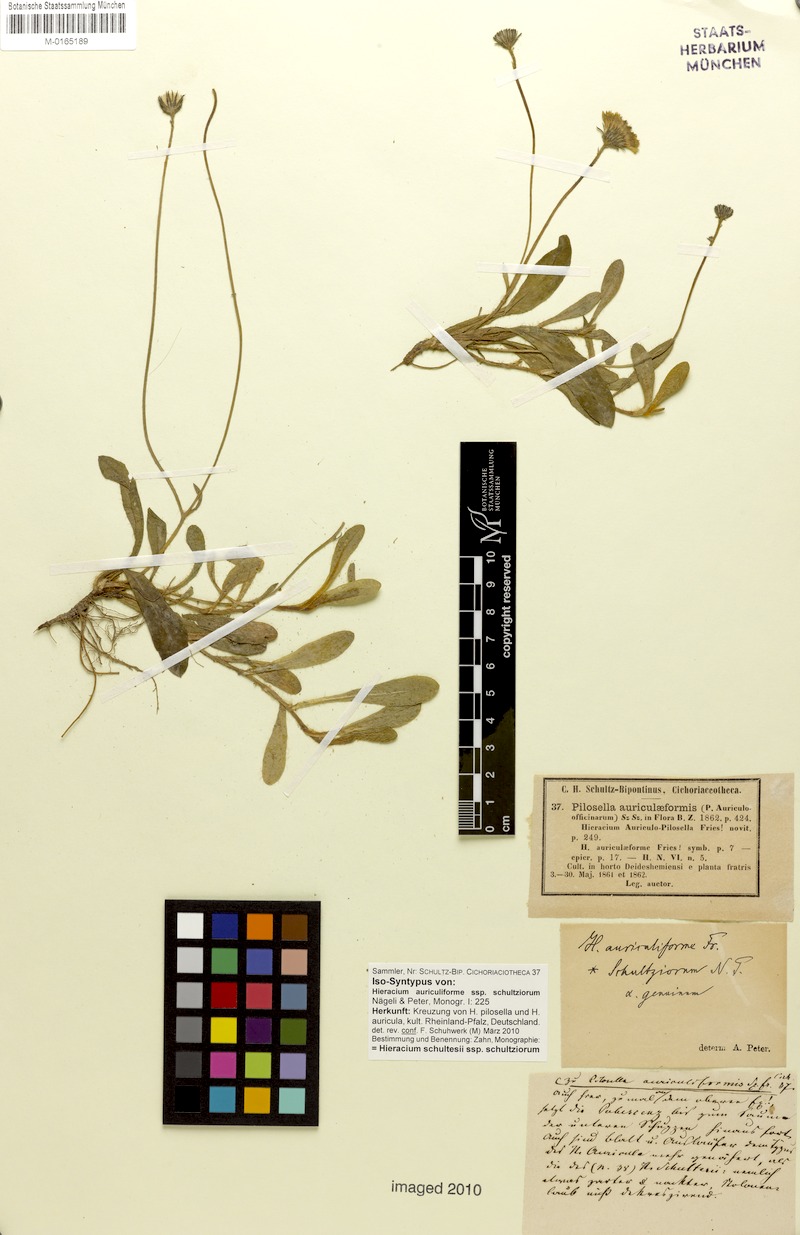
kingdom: Plantae
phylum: Tracheophyta
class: Magnoliopsida
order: Asterales
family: Asteraceae
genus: Pilosella
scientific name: Pilosella schultesii
